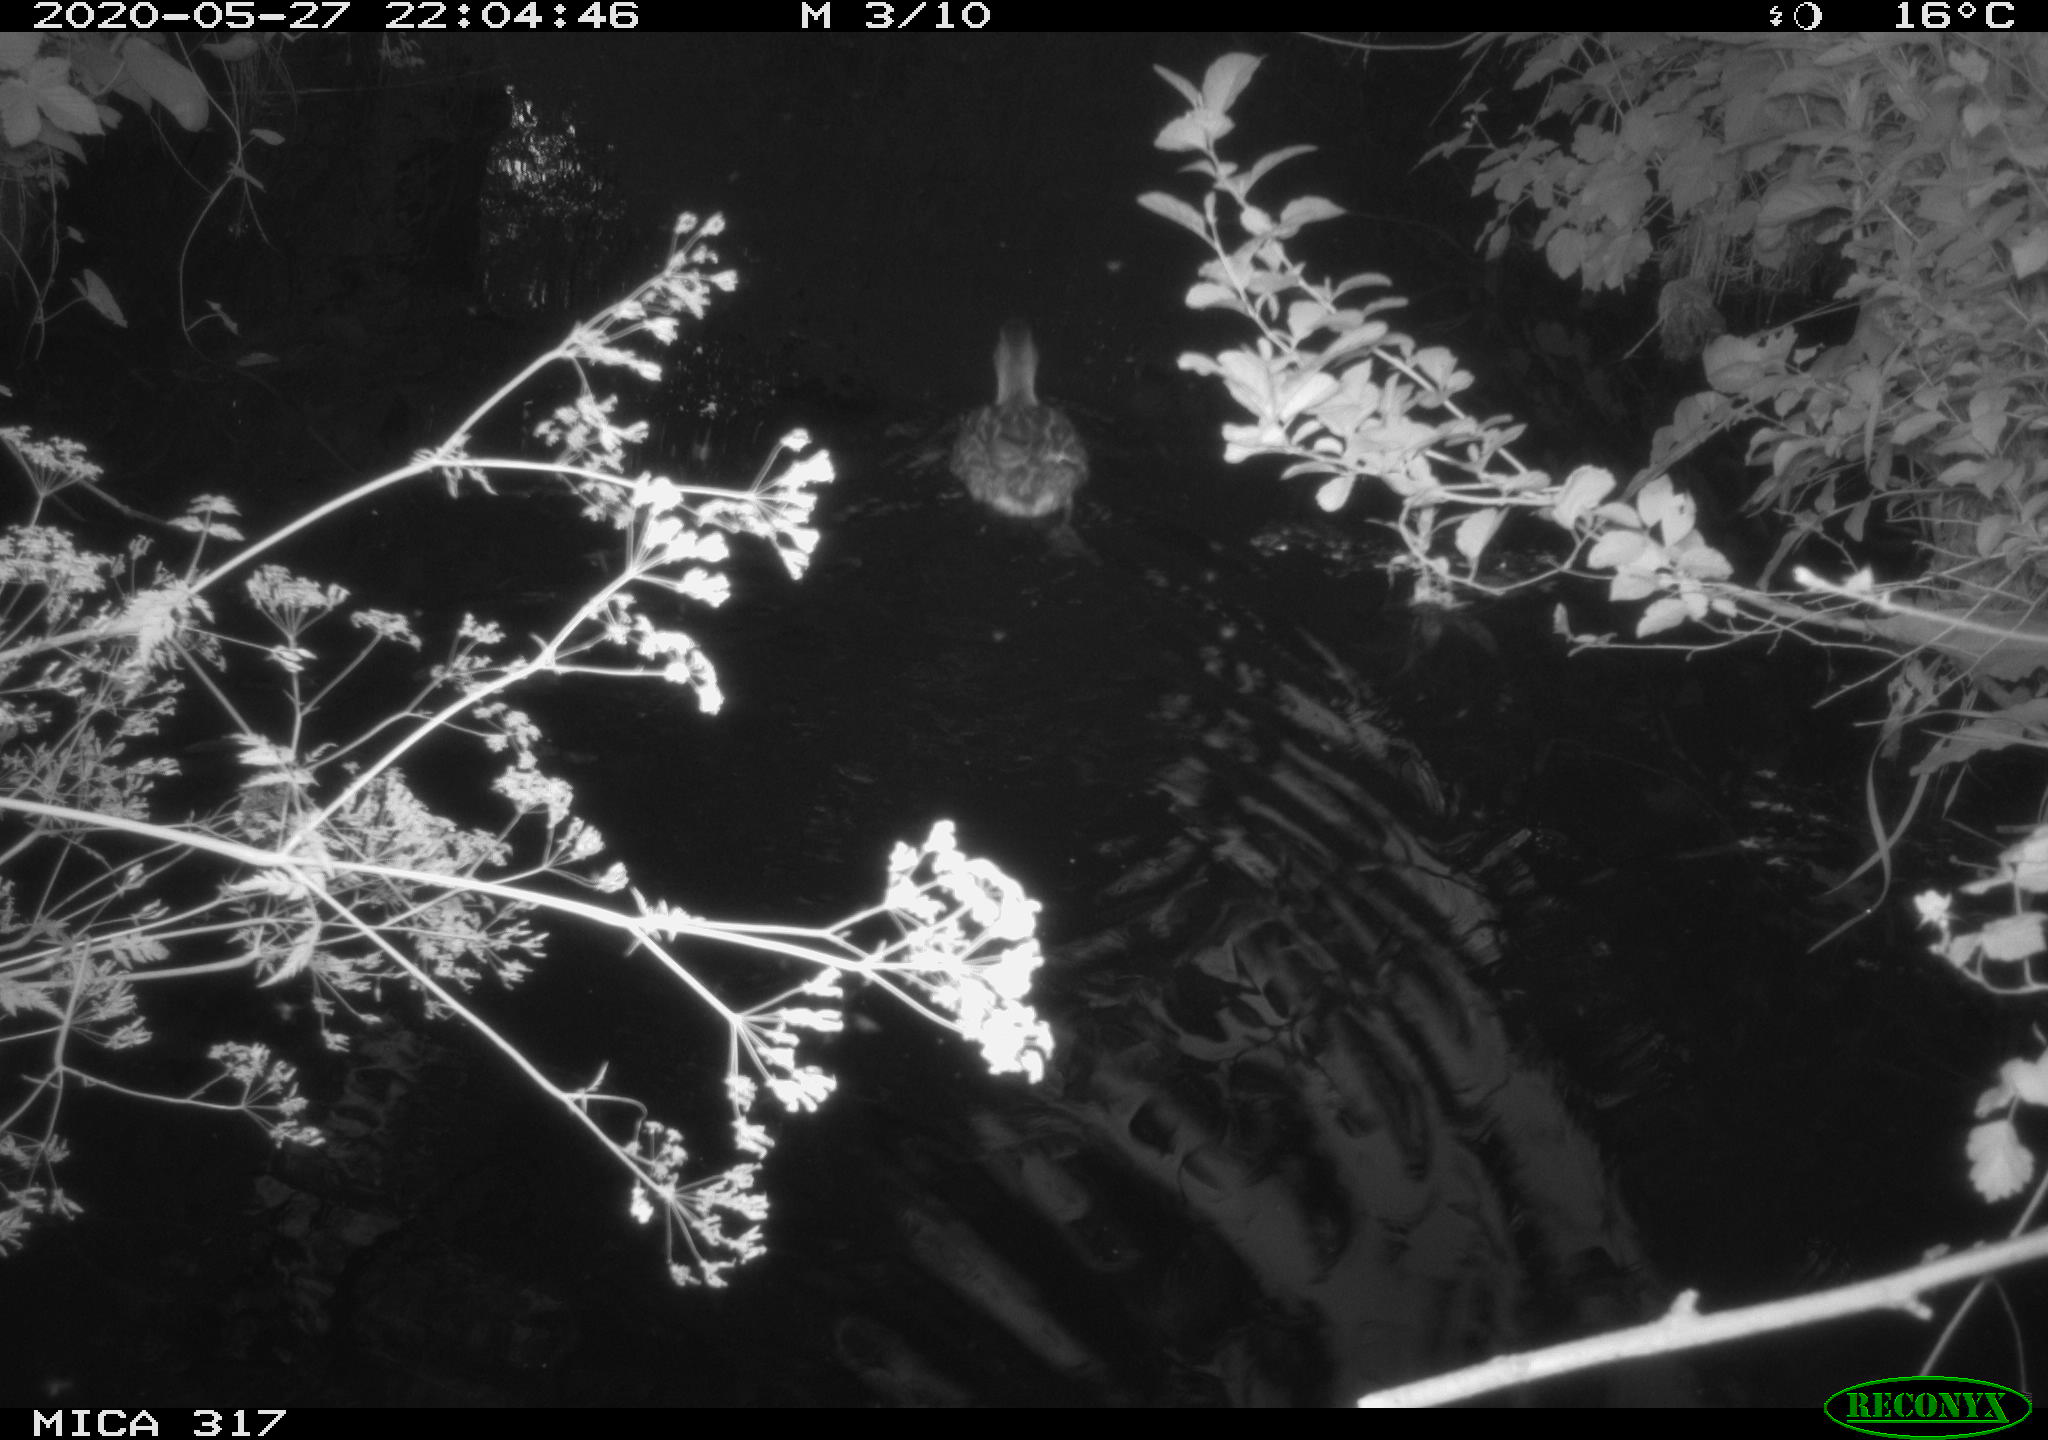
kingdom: Animalia
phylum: Chordata
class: Aves
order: Anseriformes
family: Anatidae
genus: Anas
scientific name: Anas platyrhynchos
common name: Mallard
